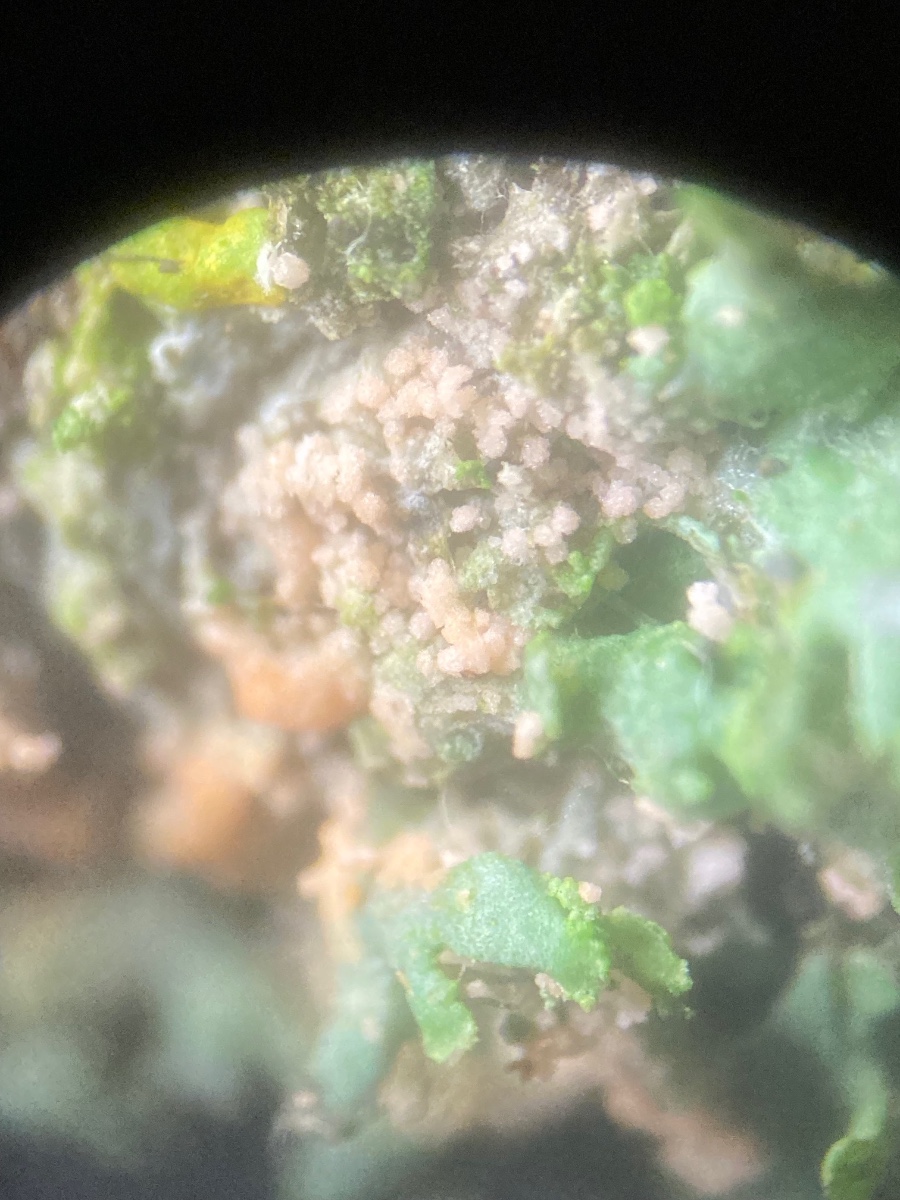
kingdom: Fungi
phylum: Basidiomycota
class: Agaricomycetes
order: Corticiales
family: Corticiaceae
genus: Erythricium
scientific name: Erythricium aurantiacum
